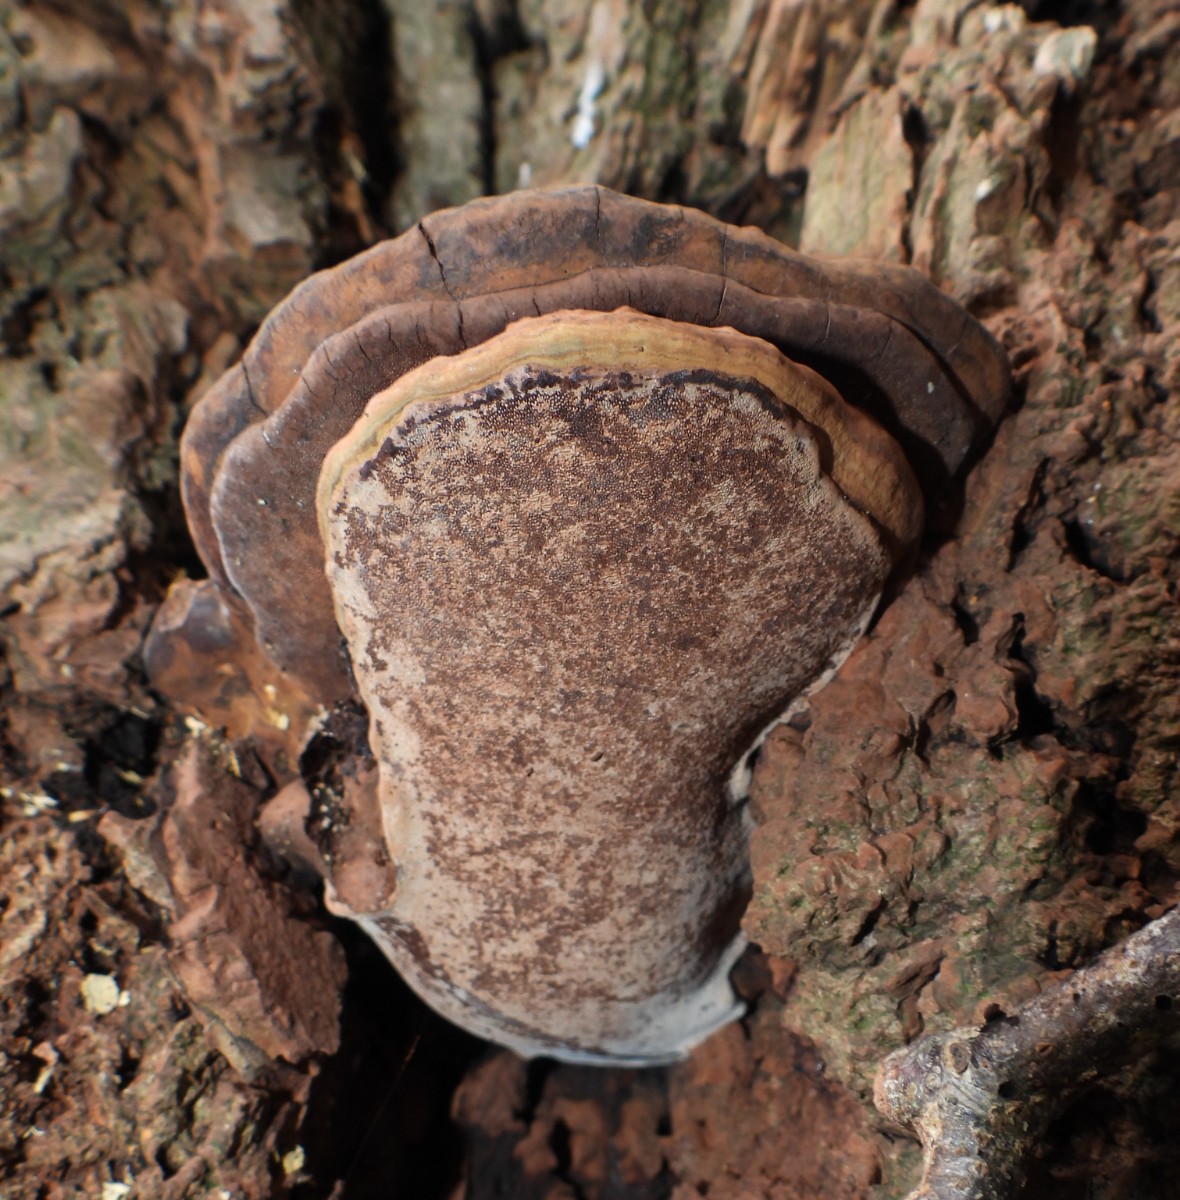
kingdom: Fungi
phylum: Basidiomycota
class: Agaricomycetes
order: Polyporales
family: Polyporaceae
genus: Ganoderma
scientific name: Ganoderma adspersum
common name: grov lakporesvamp
